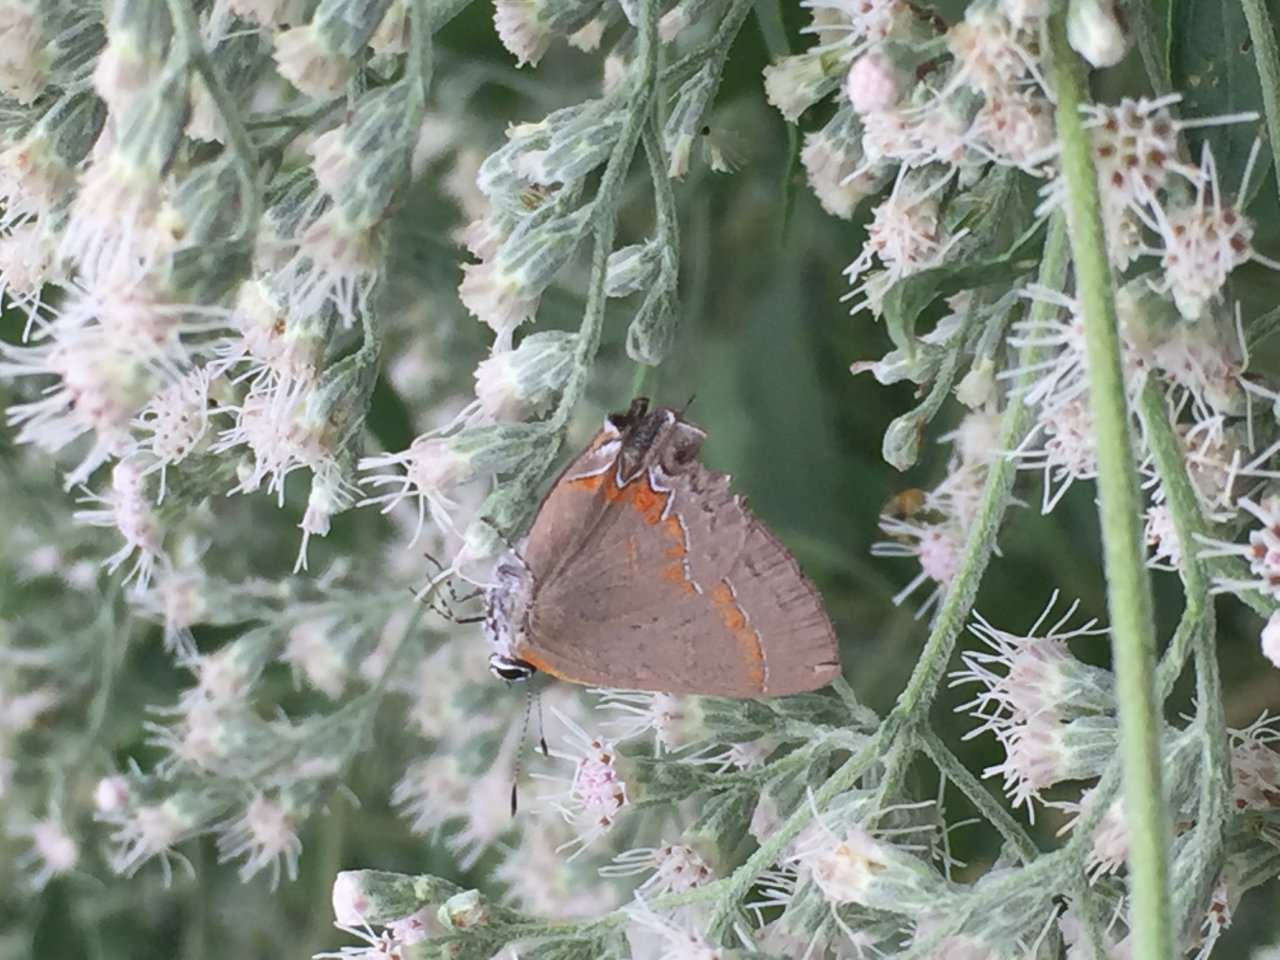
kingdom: Animalia
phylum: Arthropoda
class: Insecta
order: Lepidoptera
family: Lycaenidae
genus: Calycopis
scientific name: Calycopis cecrops
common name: Red-banded Hairstreak
